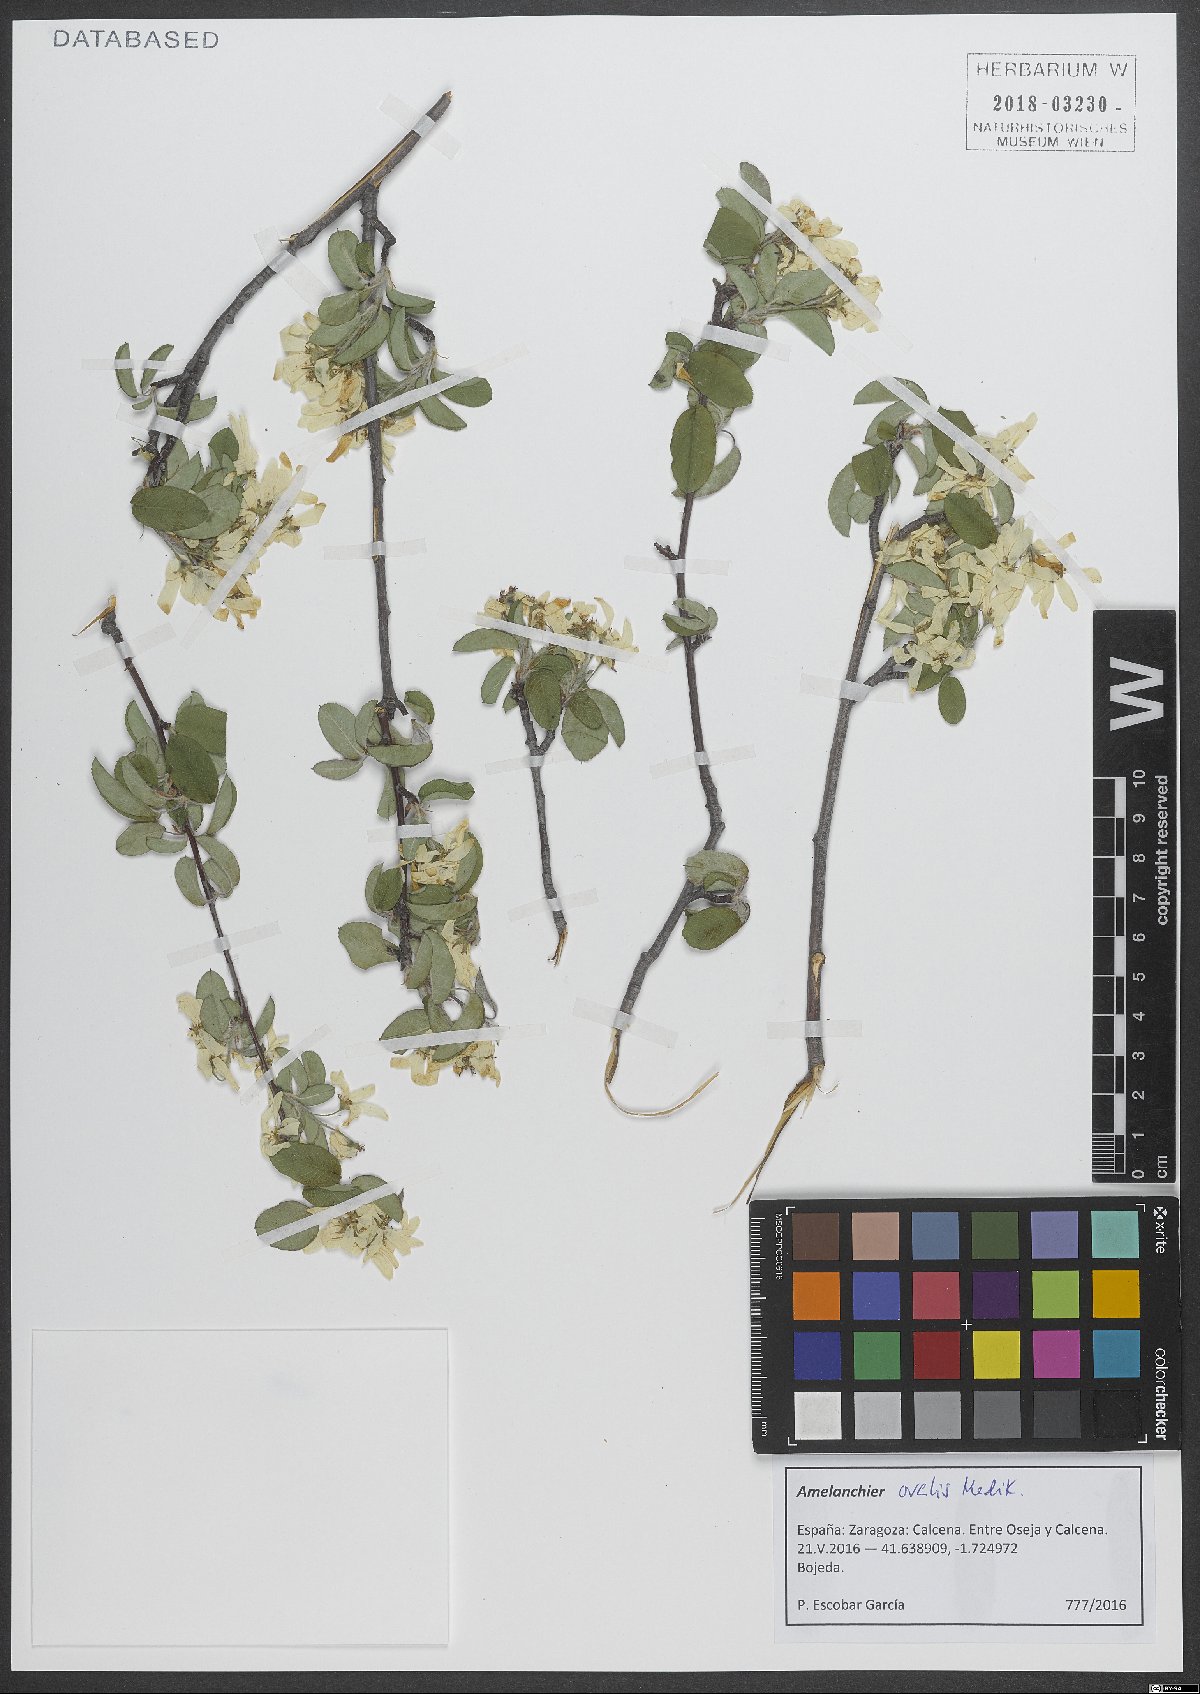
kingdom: Plantae
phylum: Tracheophyta
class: Magnoliopsida
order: Rosales
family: Rosaceae
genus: Amelanchier
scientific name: Amelanchier ovalis
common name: Serviceberry
